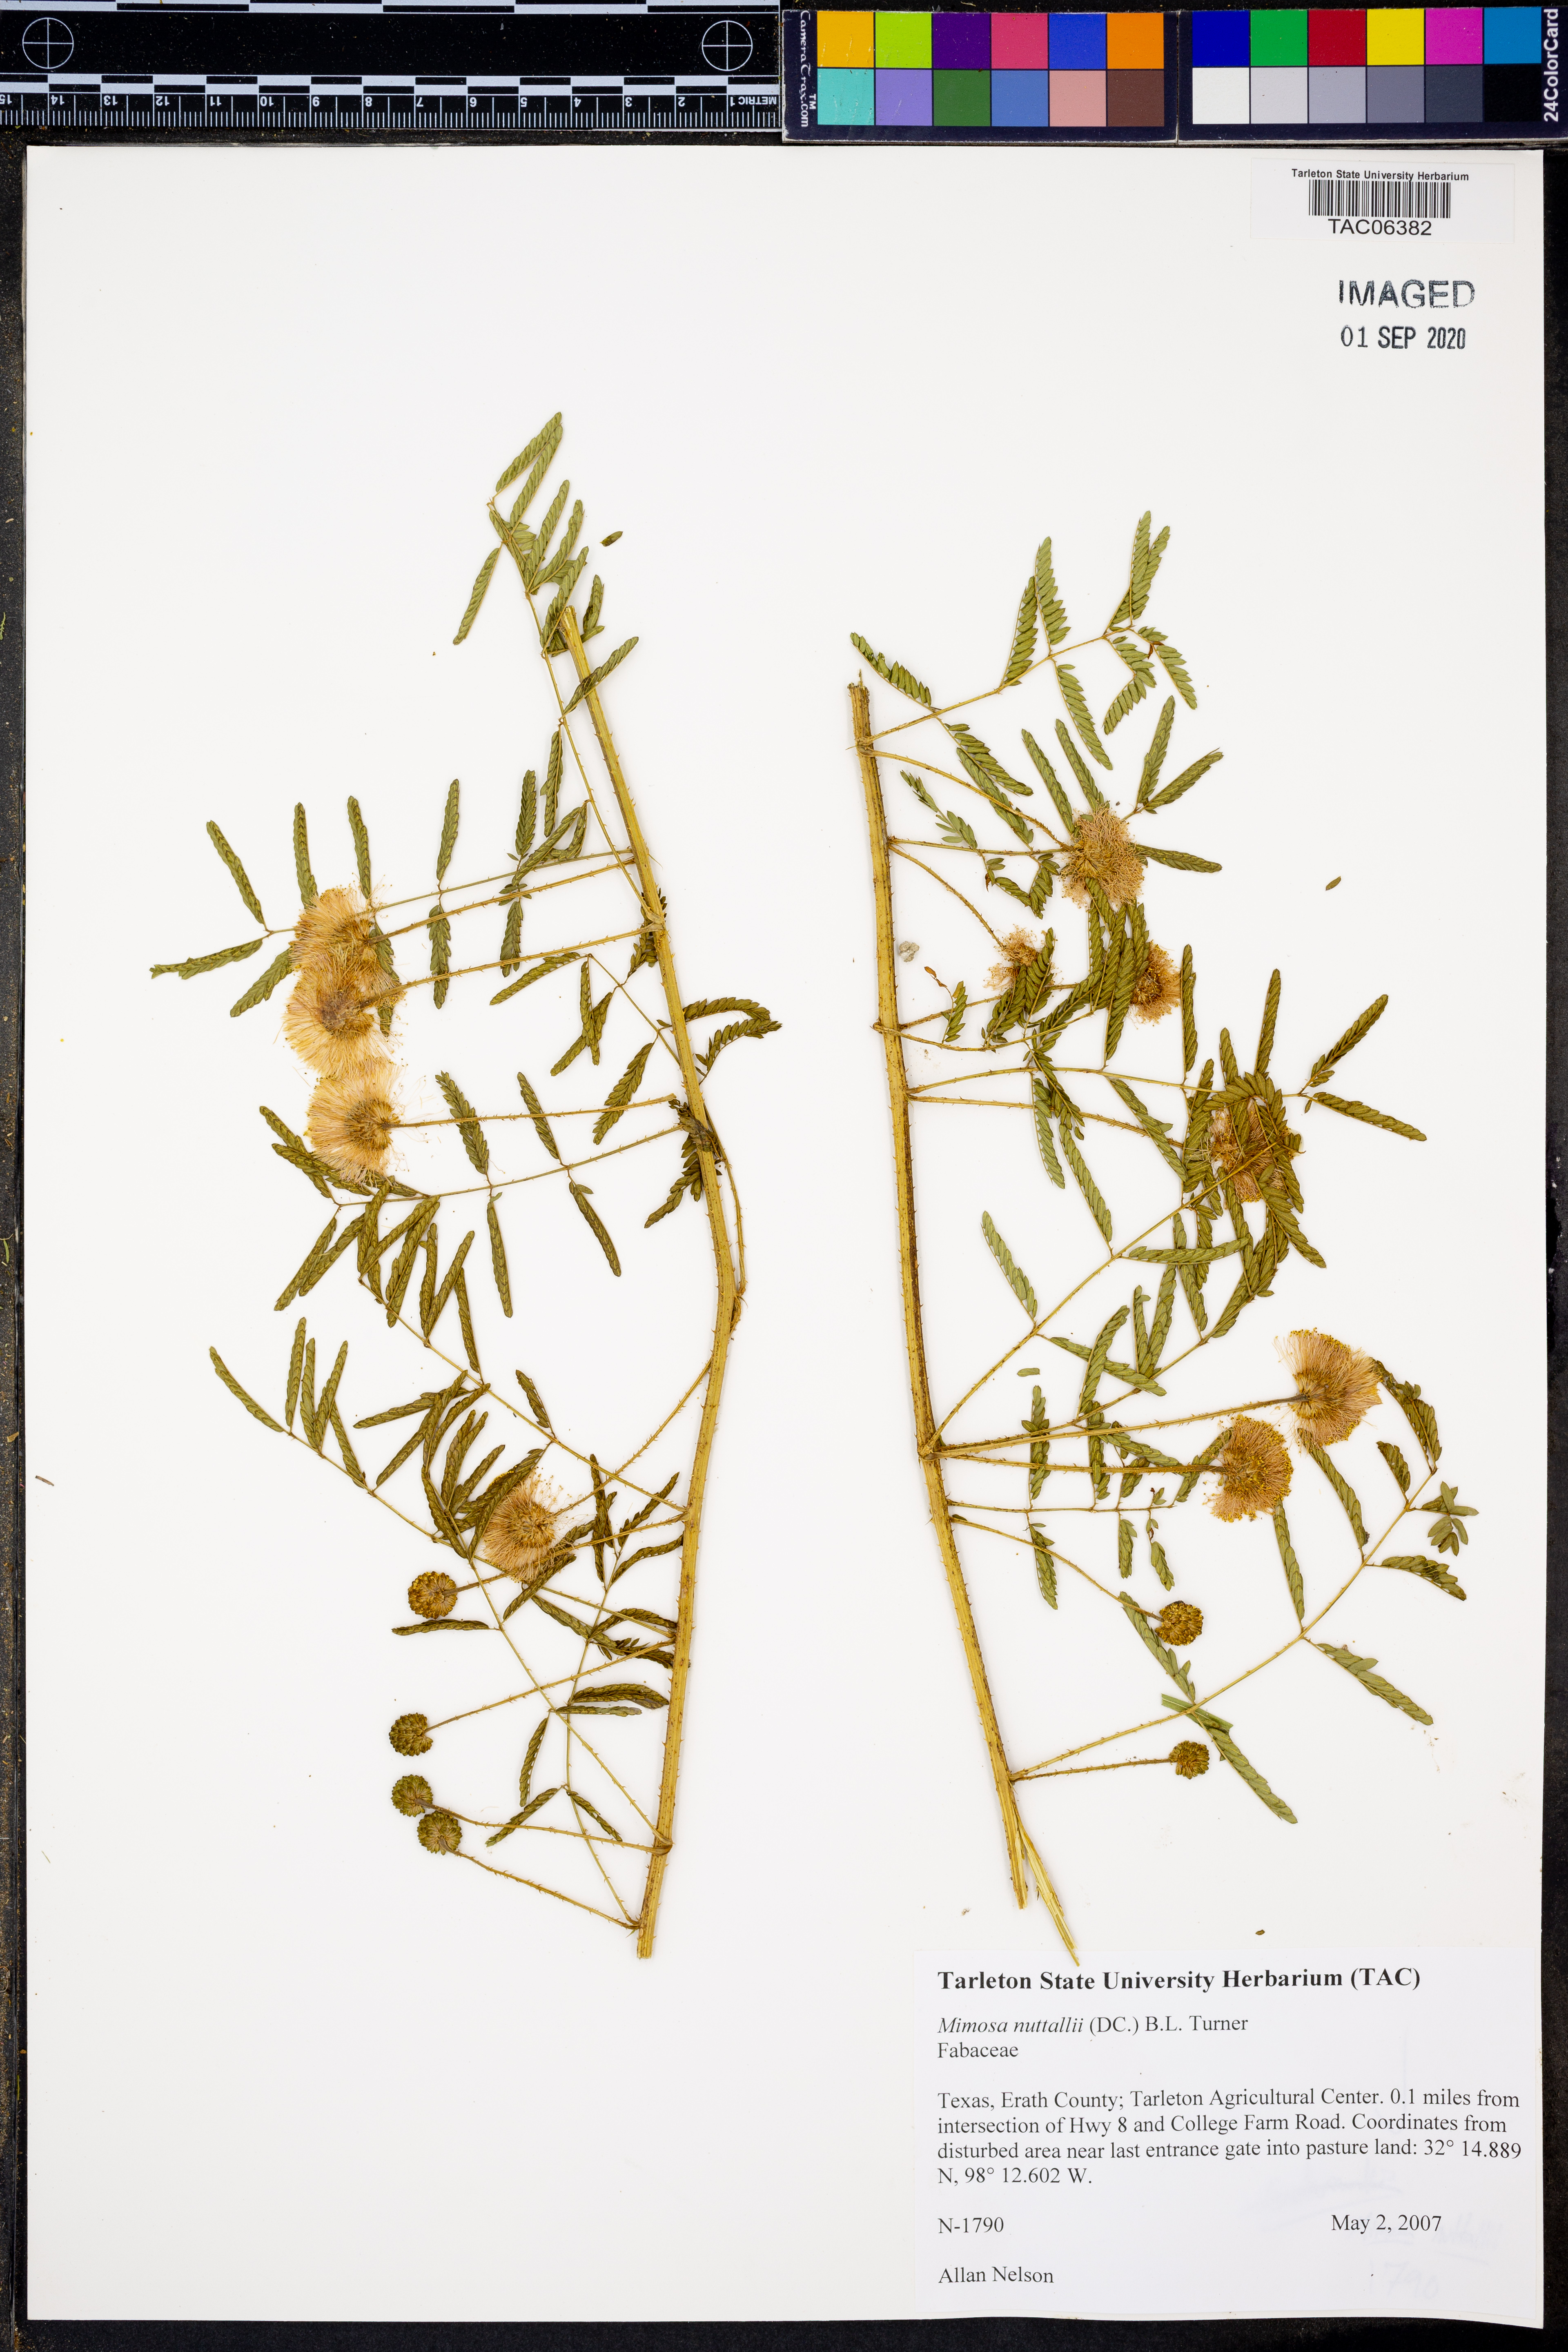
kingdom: Plantae
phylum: Tracheophyta
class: Magnoliopsida
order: Fabales
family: Fabaceae
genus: Mimosa
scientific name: Mimosa quadrivalvis
